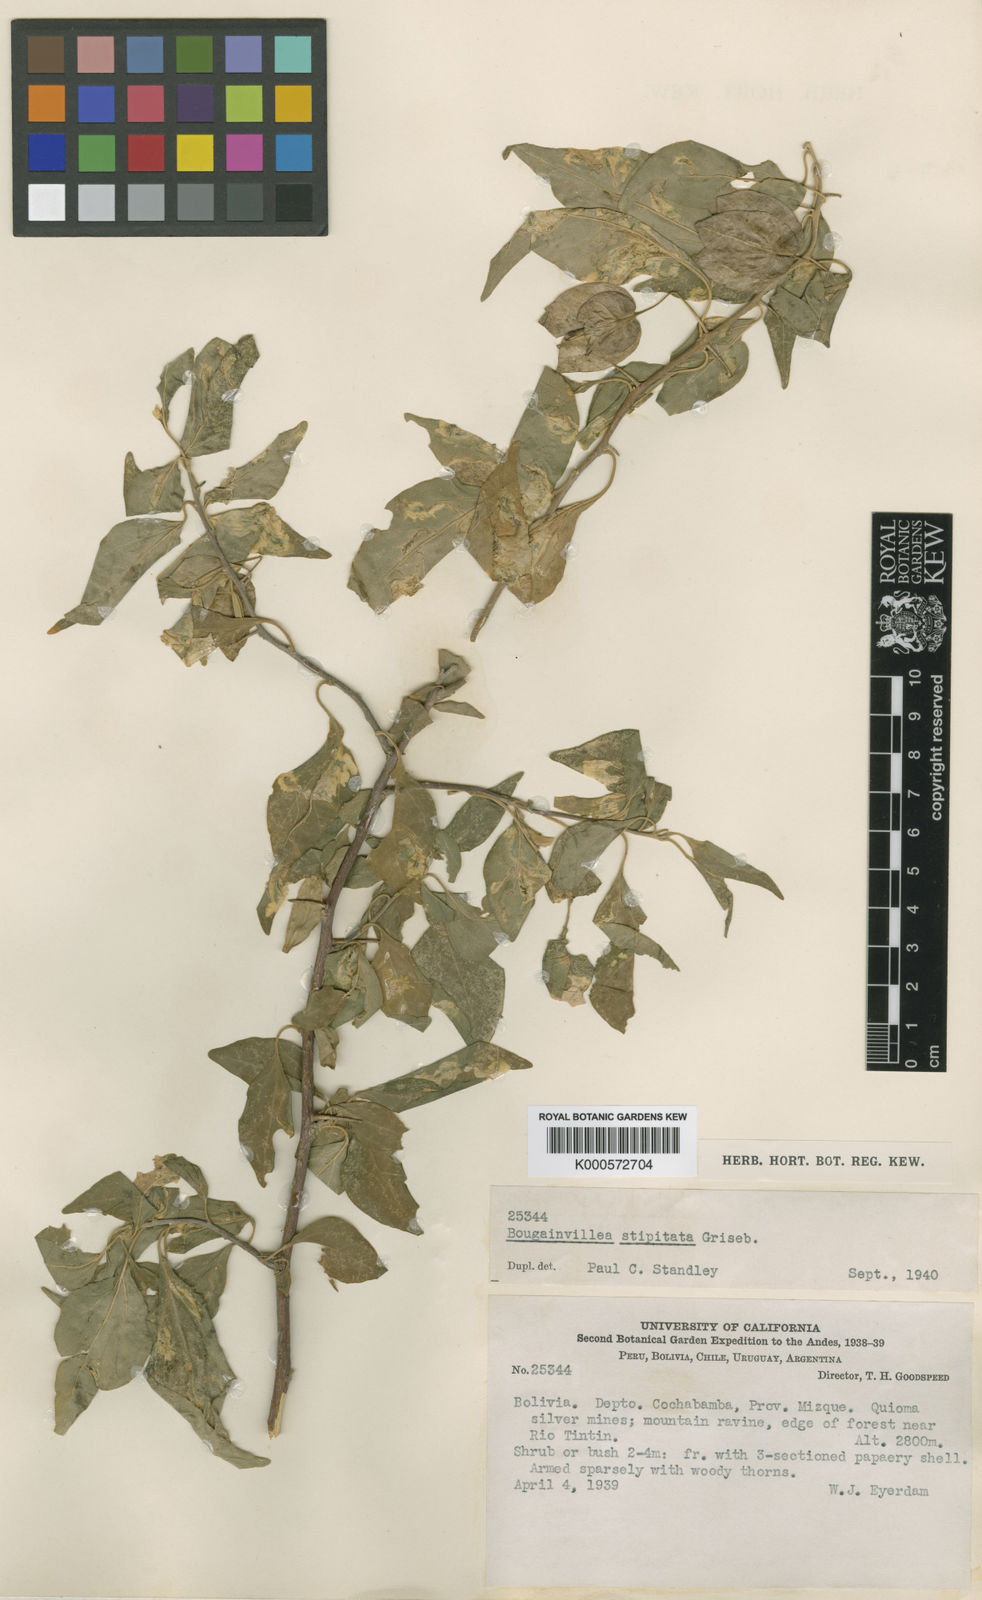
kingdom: Plantae
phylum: Tracheophyta
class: Magnoliopsida
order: Caryophyllales
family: Nyctaginaceae
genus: Bougainvillea
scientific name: Bougainvillea stipitata
